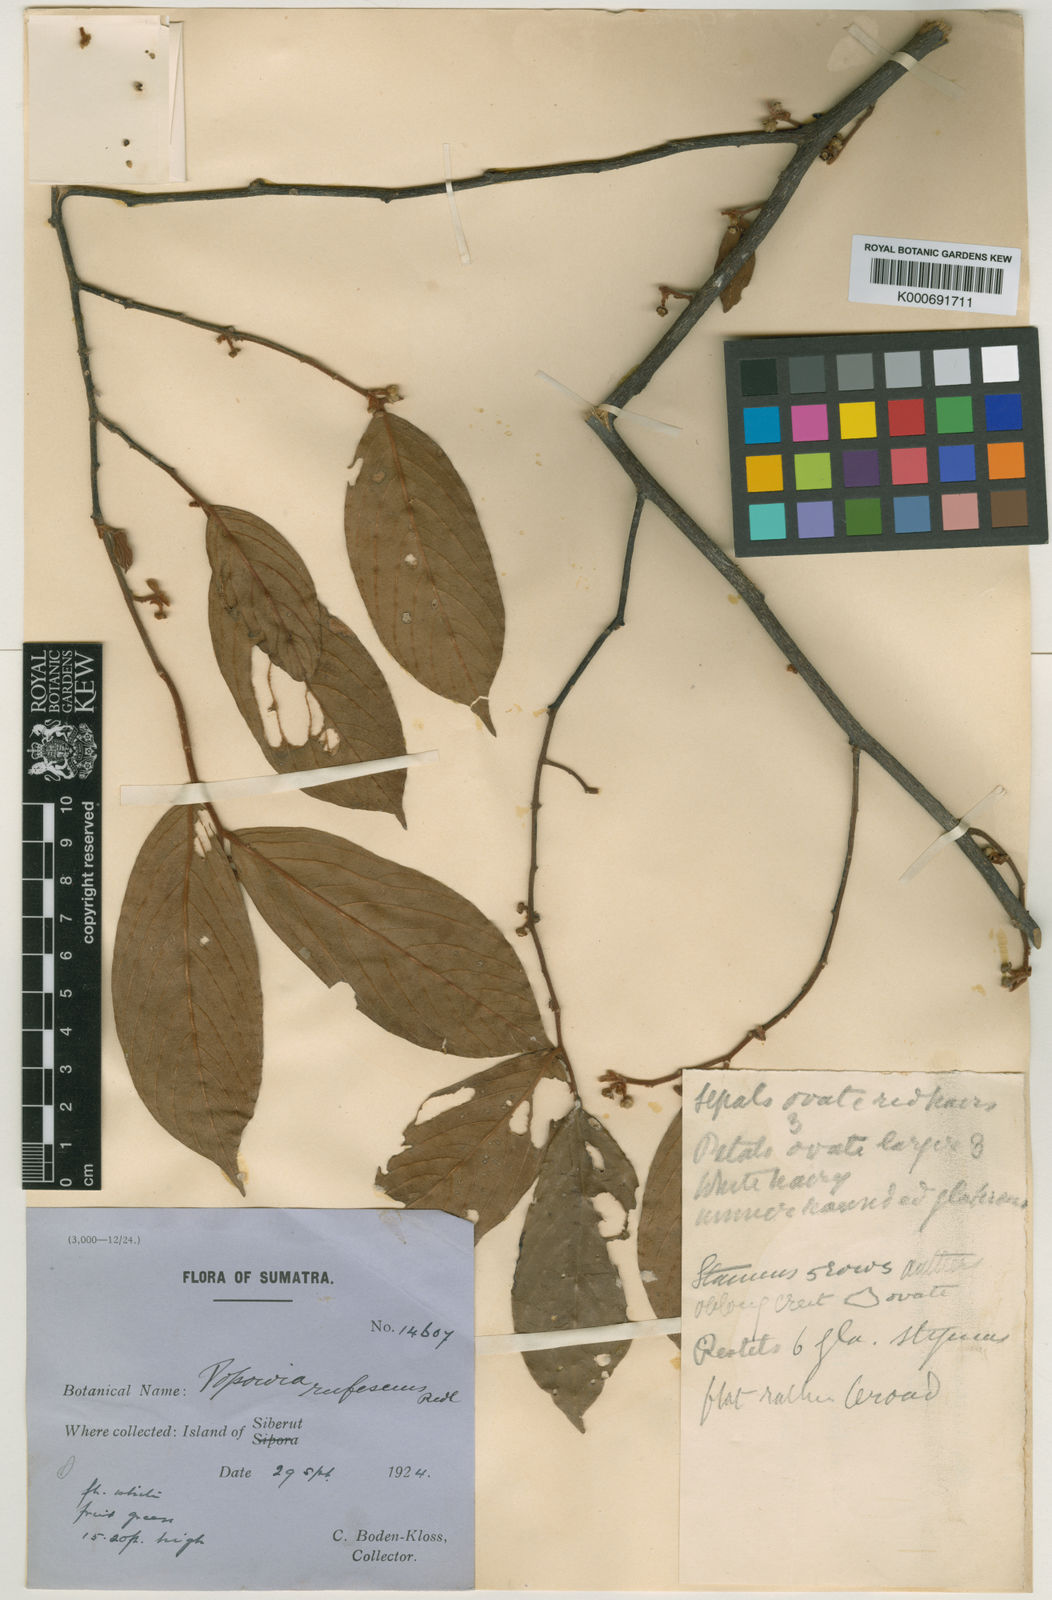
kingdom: Plantae
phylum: Tracheophyta
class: Magnoliopsida
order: Magnoliales
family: Annonaceae
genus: Popowia
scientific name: Popowia
